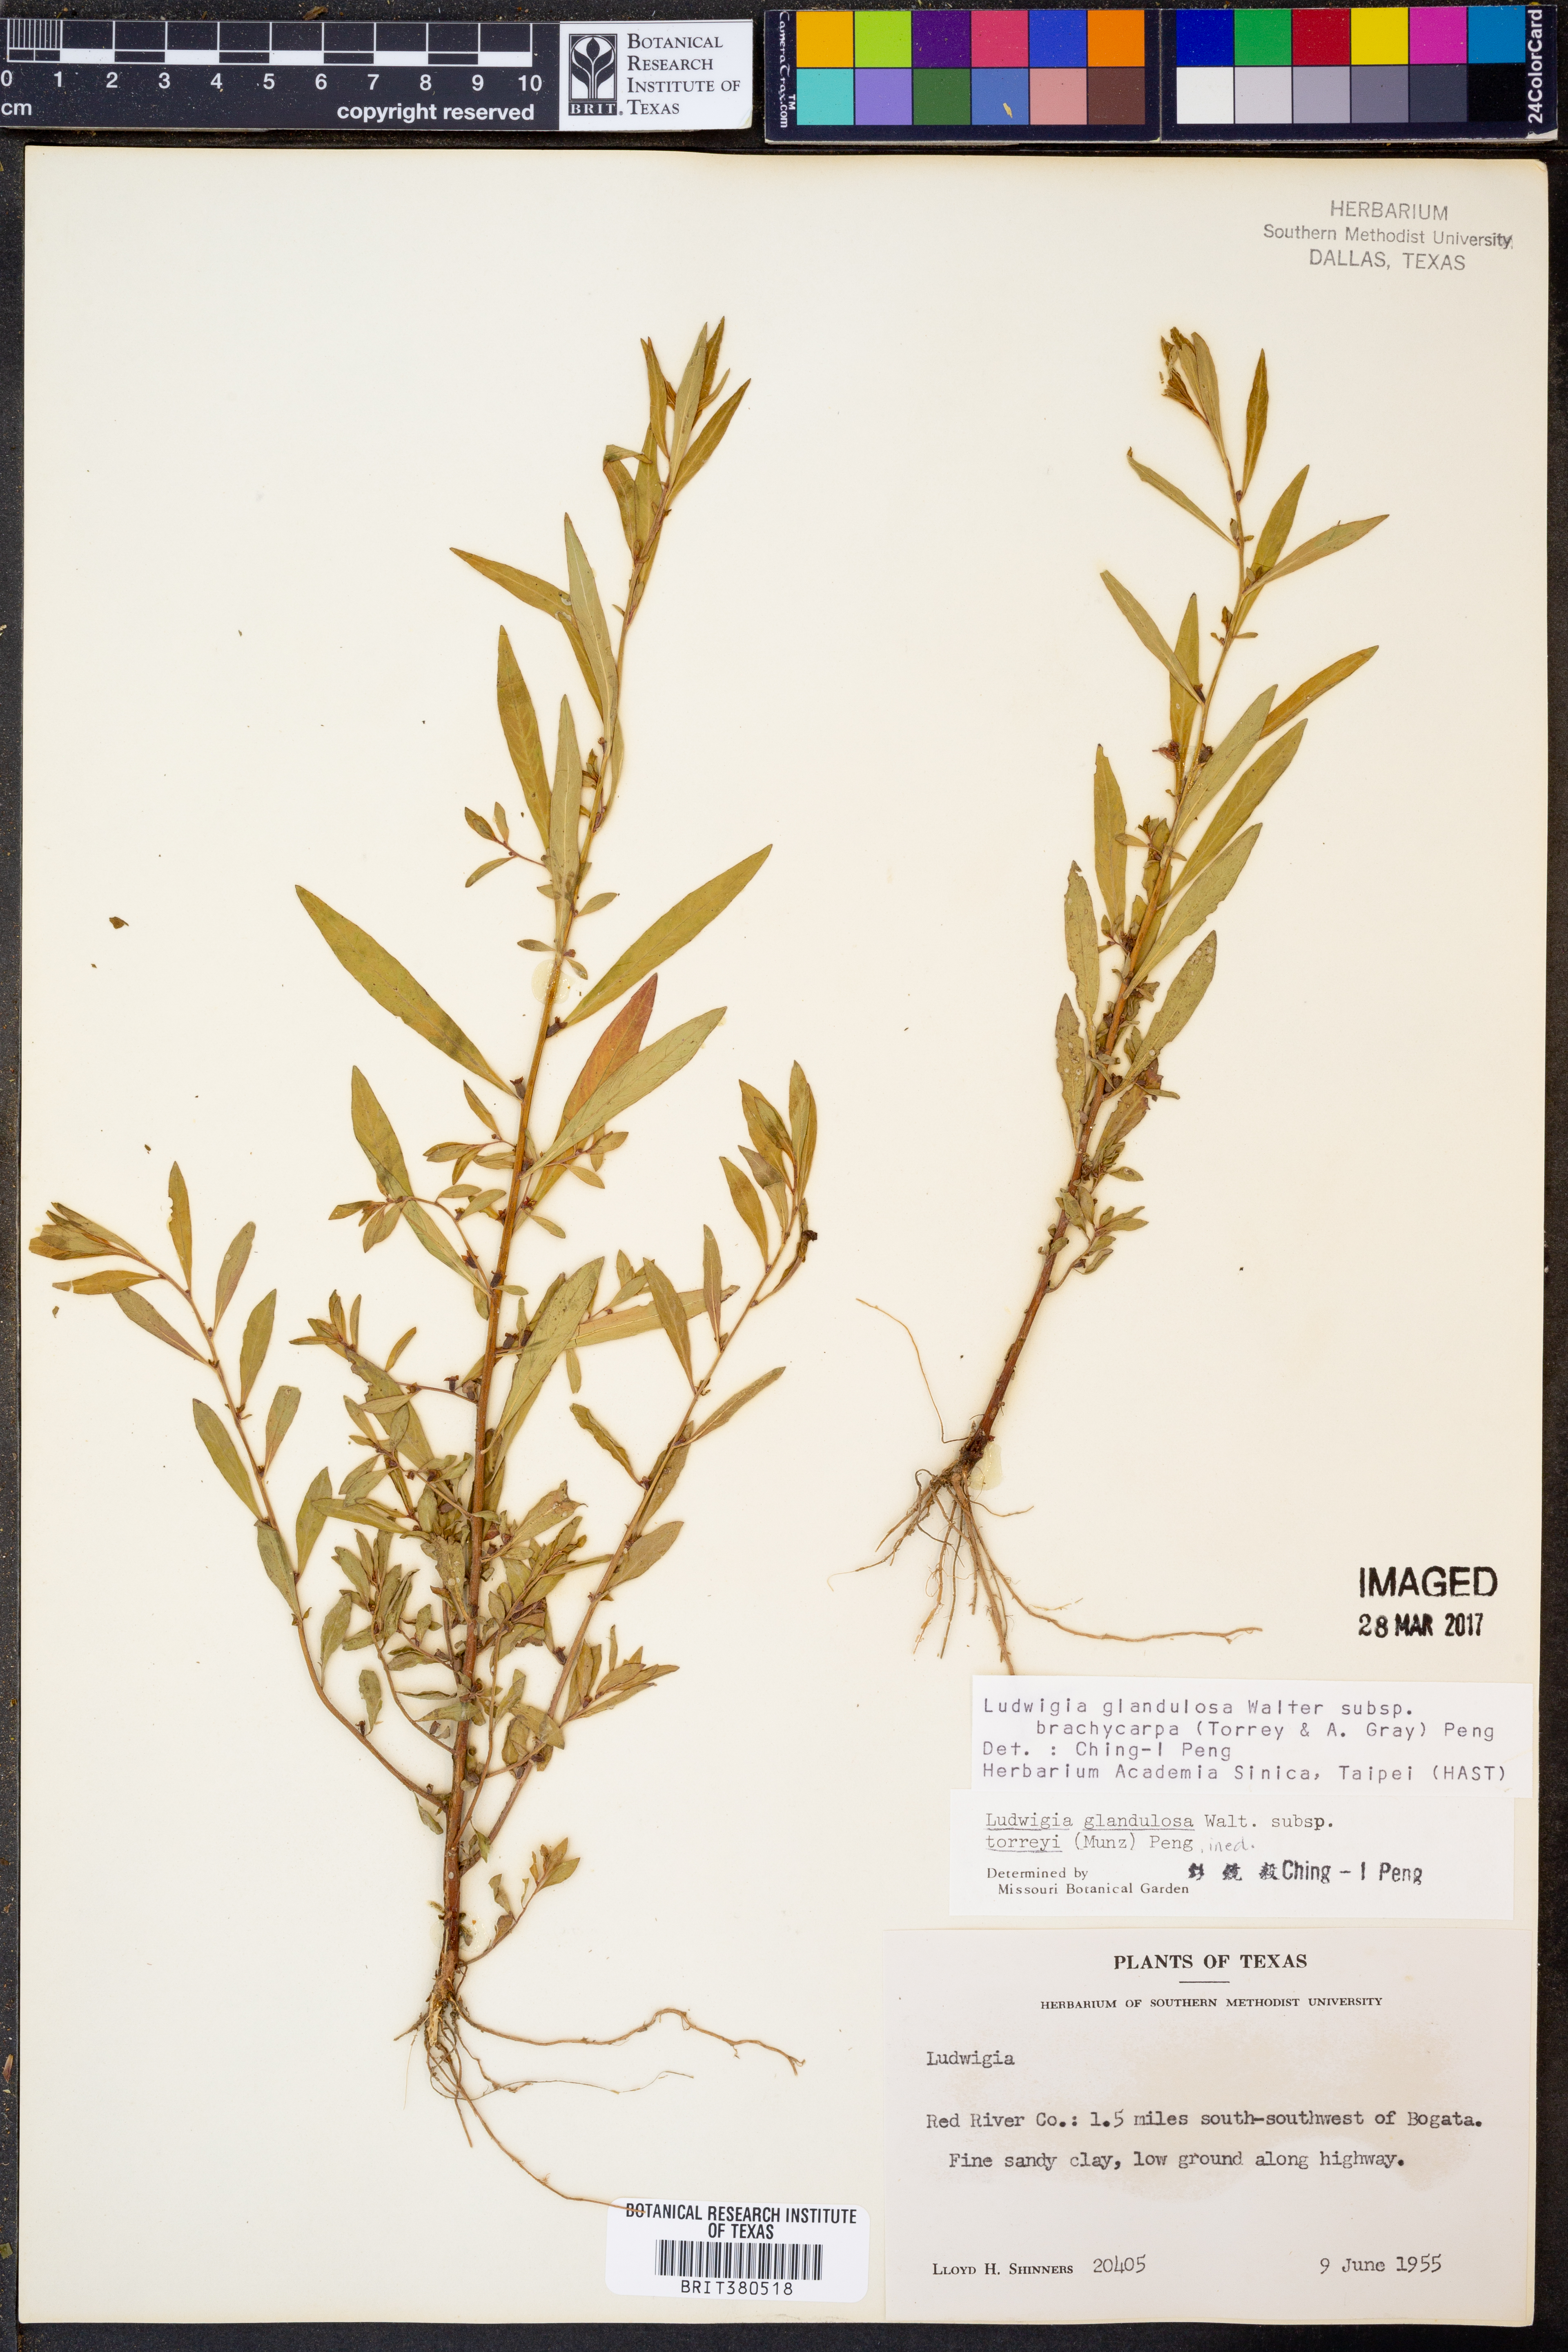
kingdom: Plantae
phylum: Tracheophyta
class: Magnoliopsida
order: Myrtales
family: Onagraceae
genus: Ludwigia
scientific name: Ludwigia glandulosa
